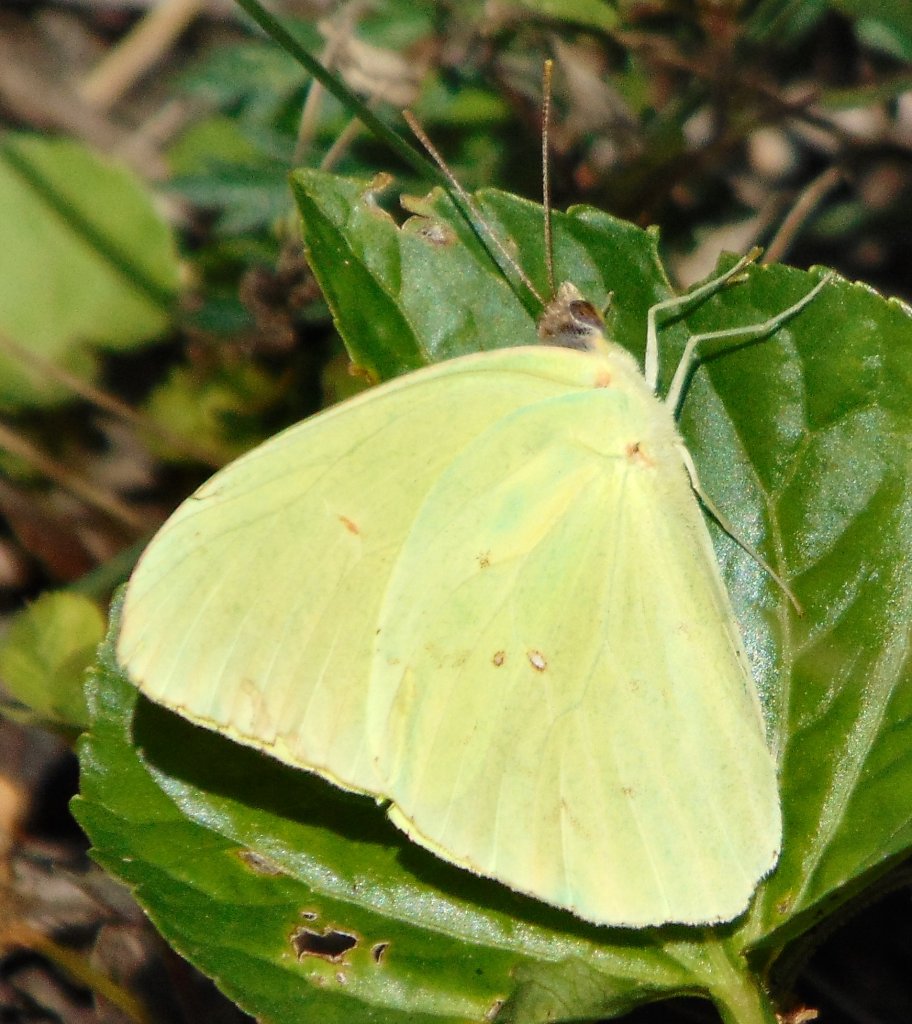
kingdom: Animalia
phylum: Arthropoda
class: Insecta
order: Lepidoptera
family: Pieridae
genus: Phoebis
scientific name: Phoebis sennae
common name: Cloudless Sulphur
